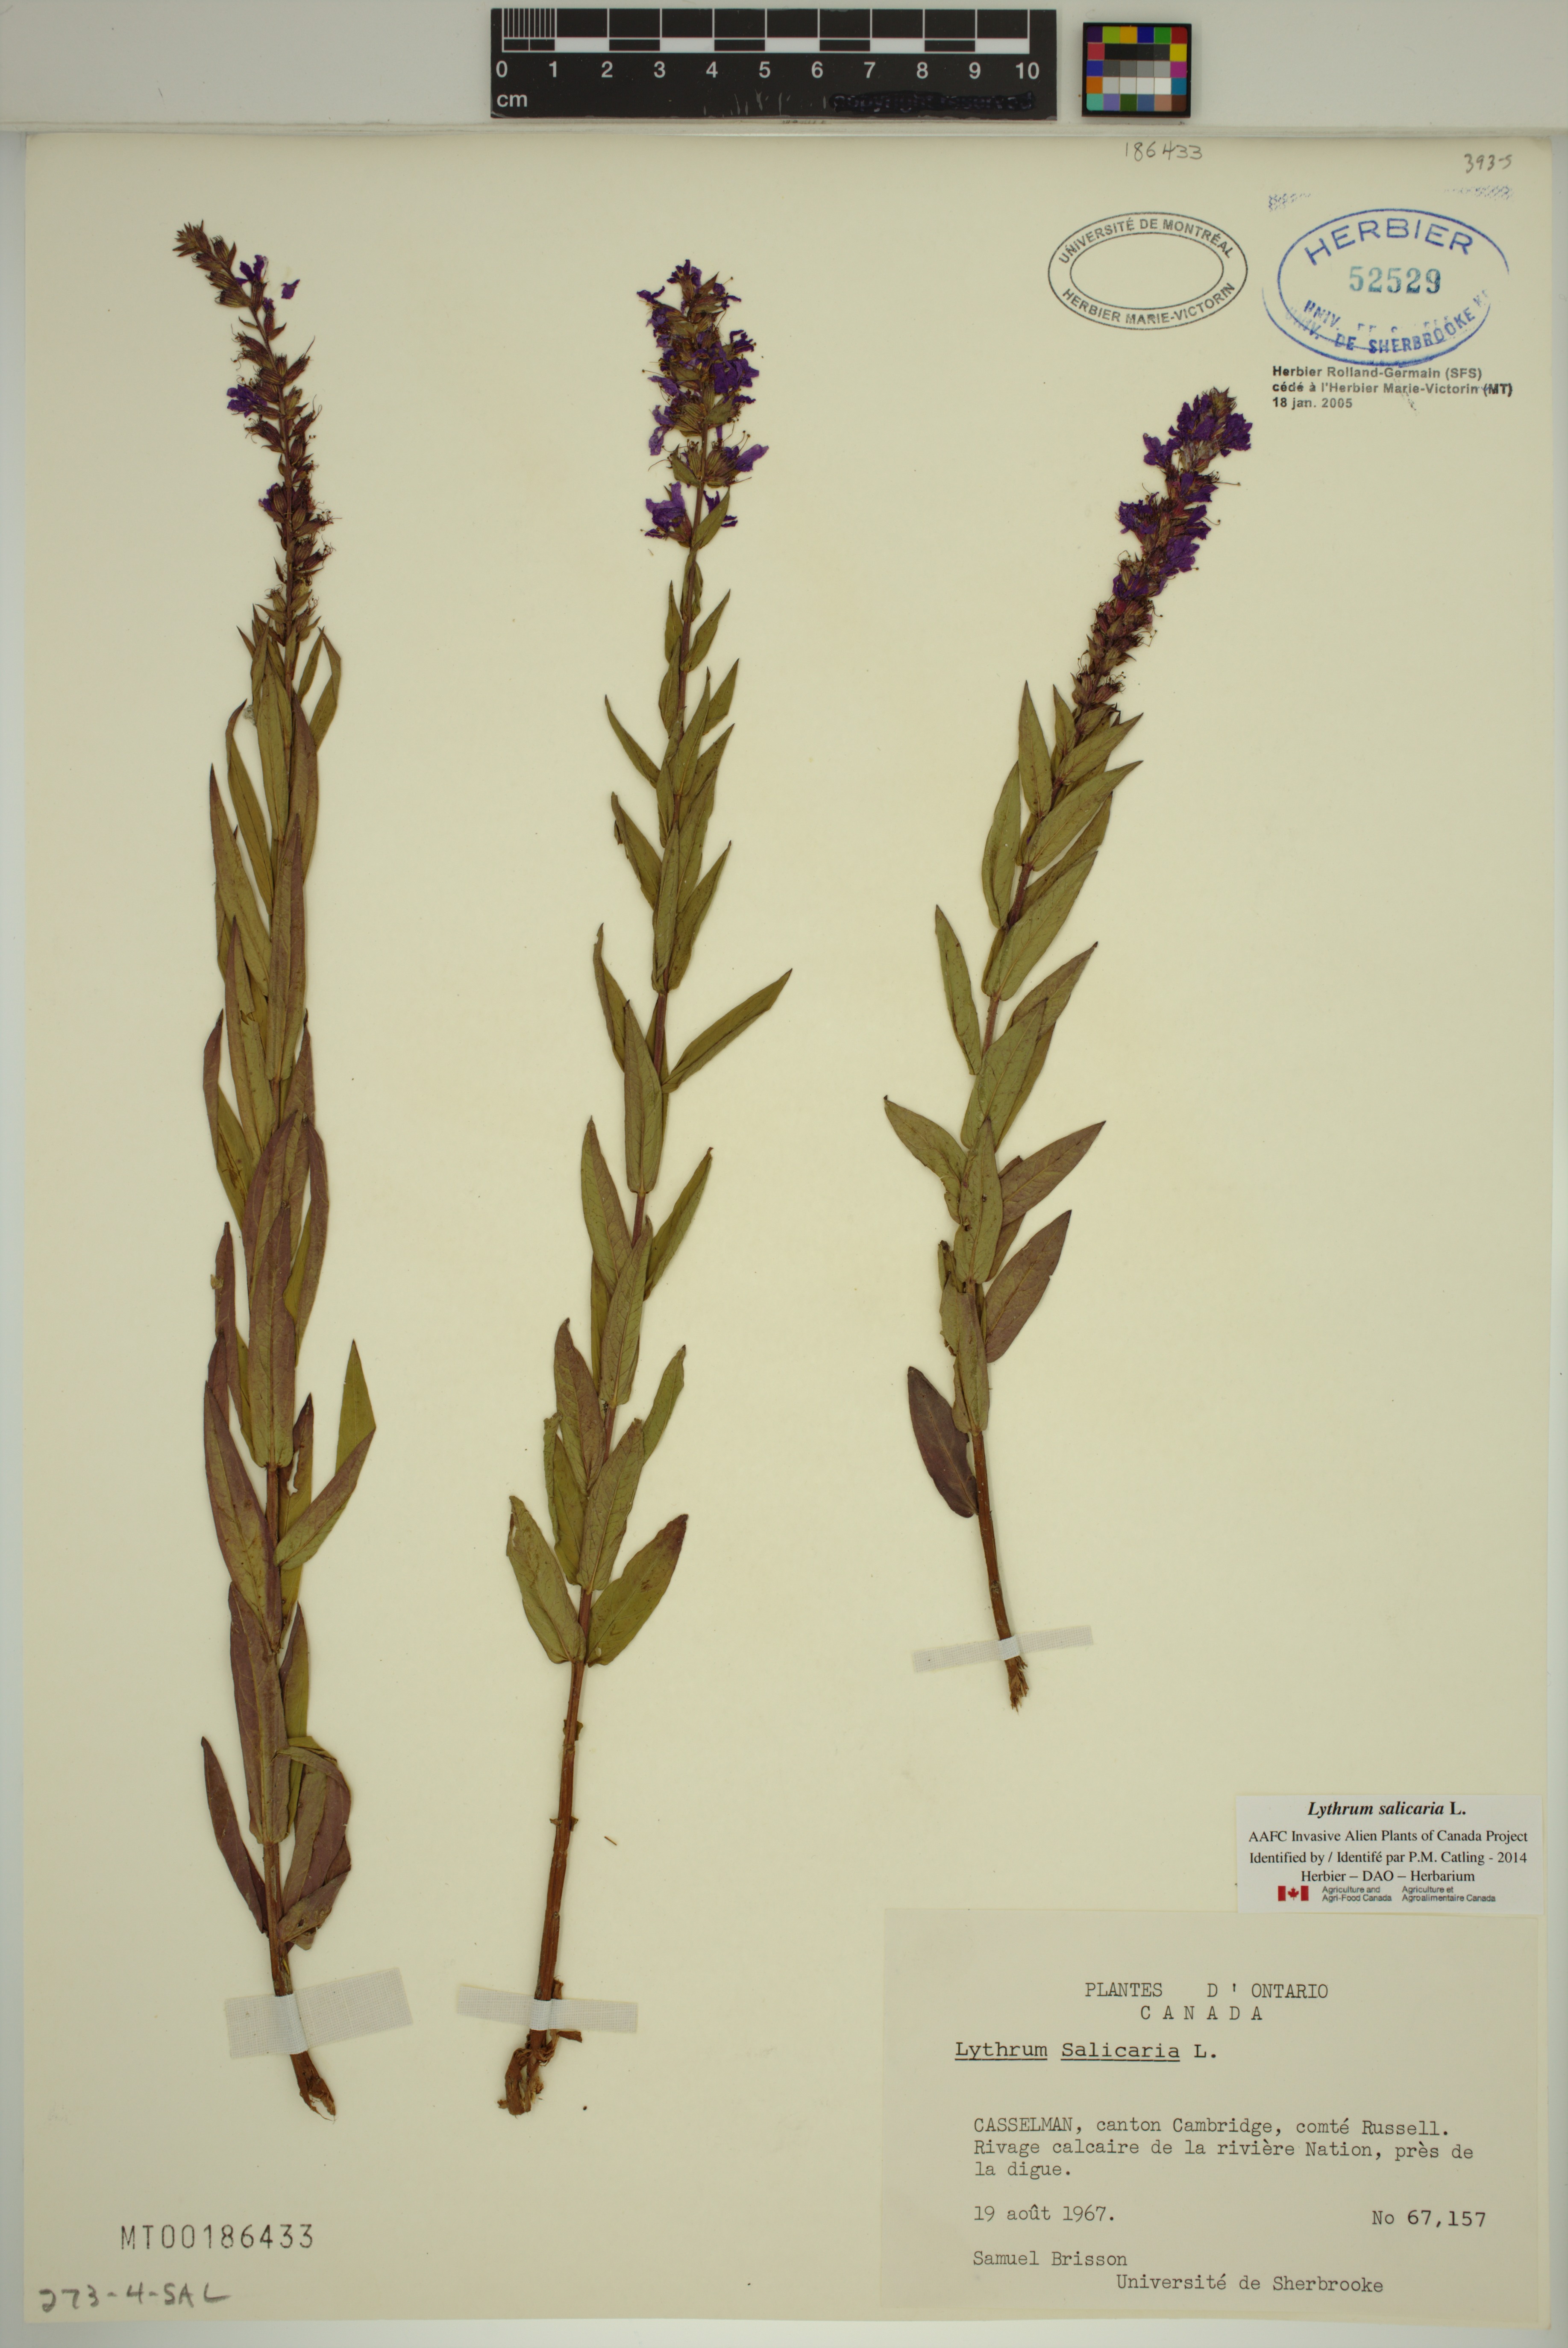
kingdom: Plantae
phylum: Tracheophyta
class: Magnoliopsida
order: Myrtales
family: Lythraceae
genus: Lythrum
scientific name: Lythrum salicaria
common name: Purple loosestrife
